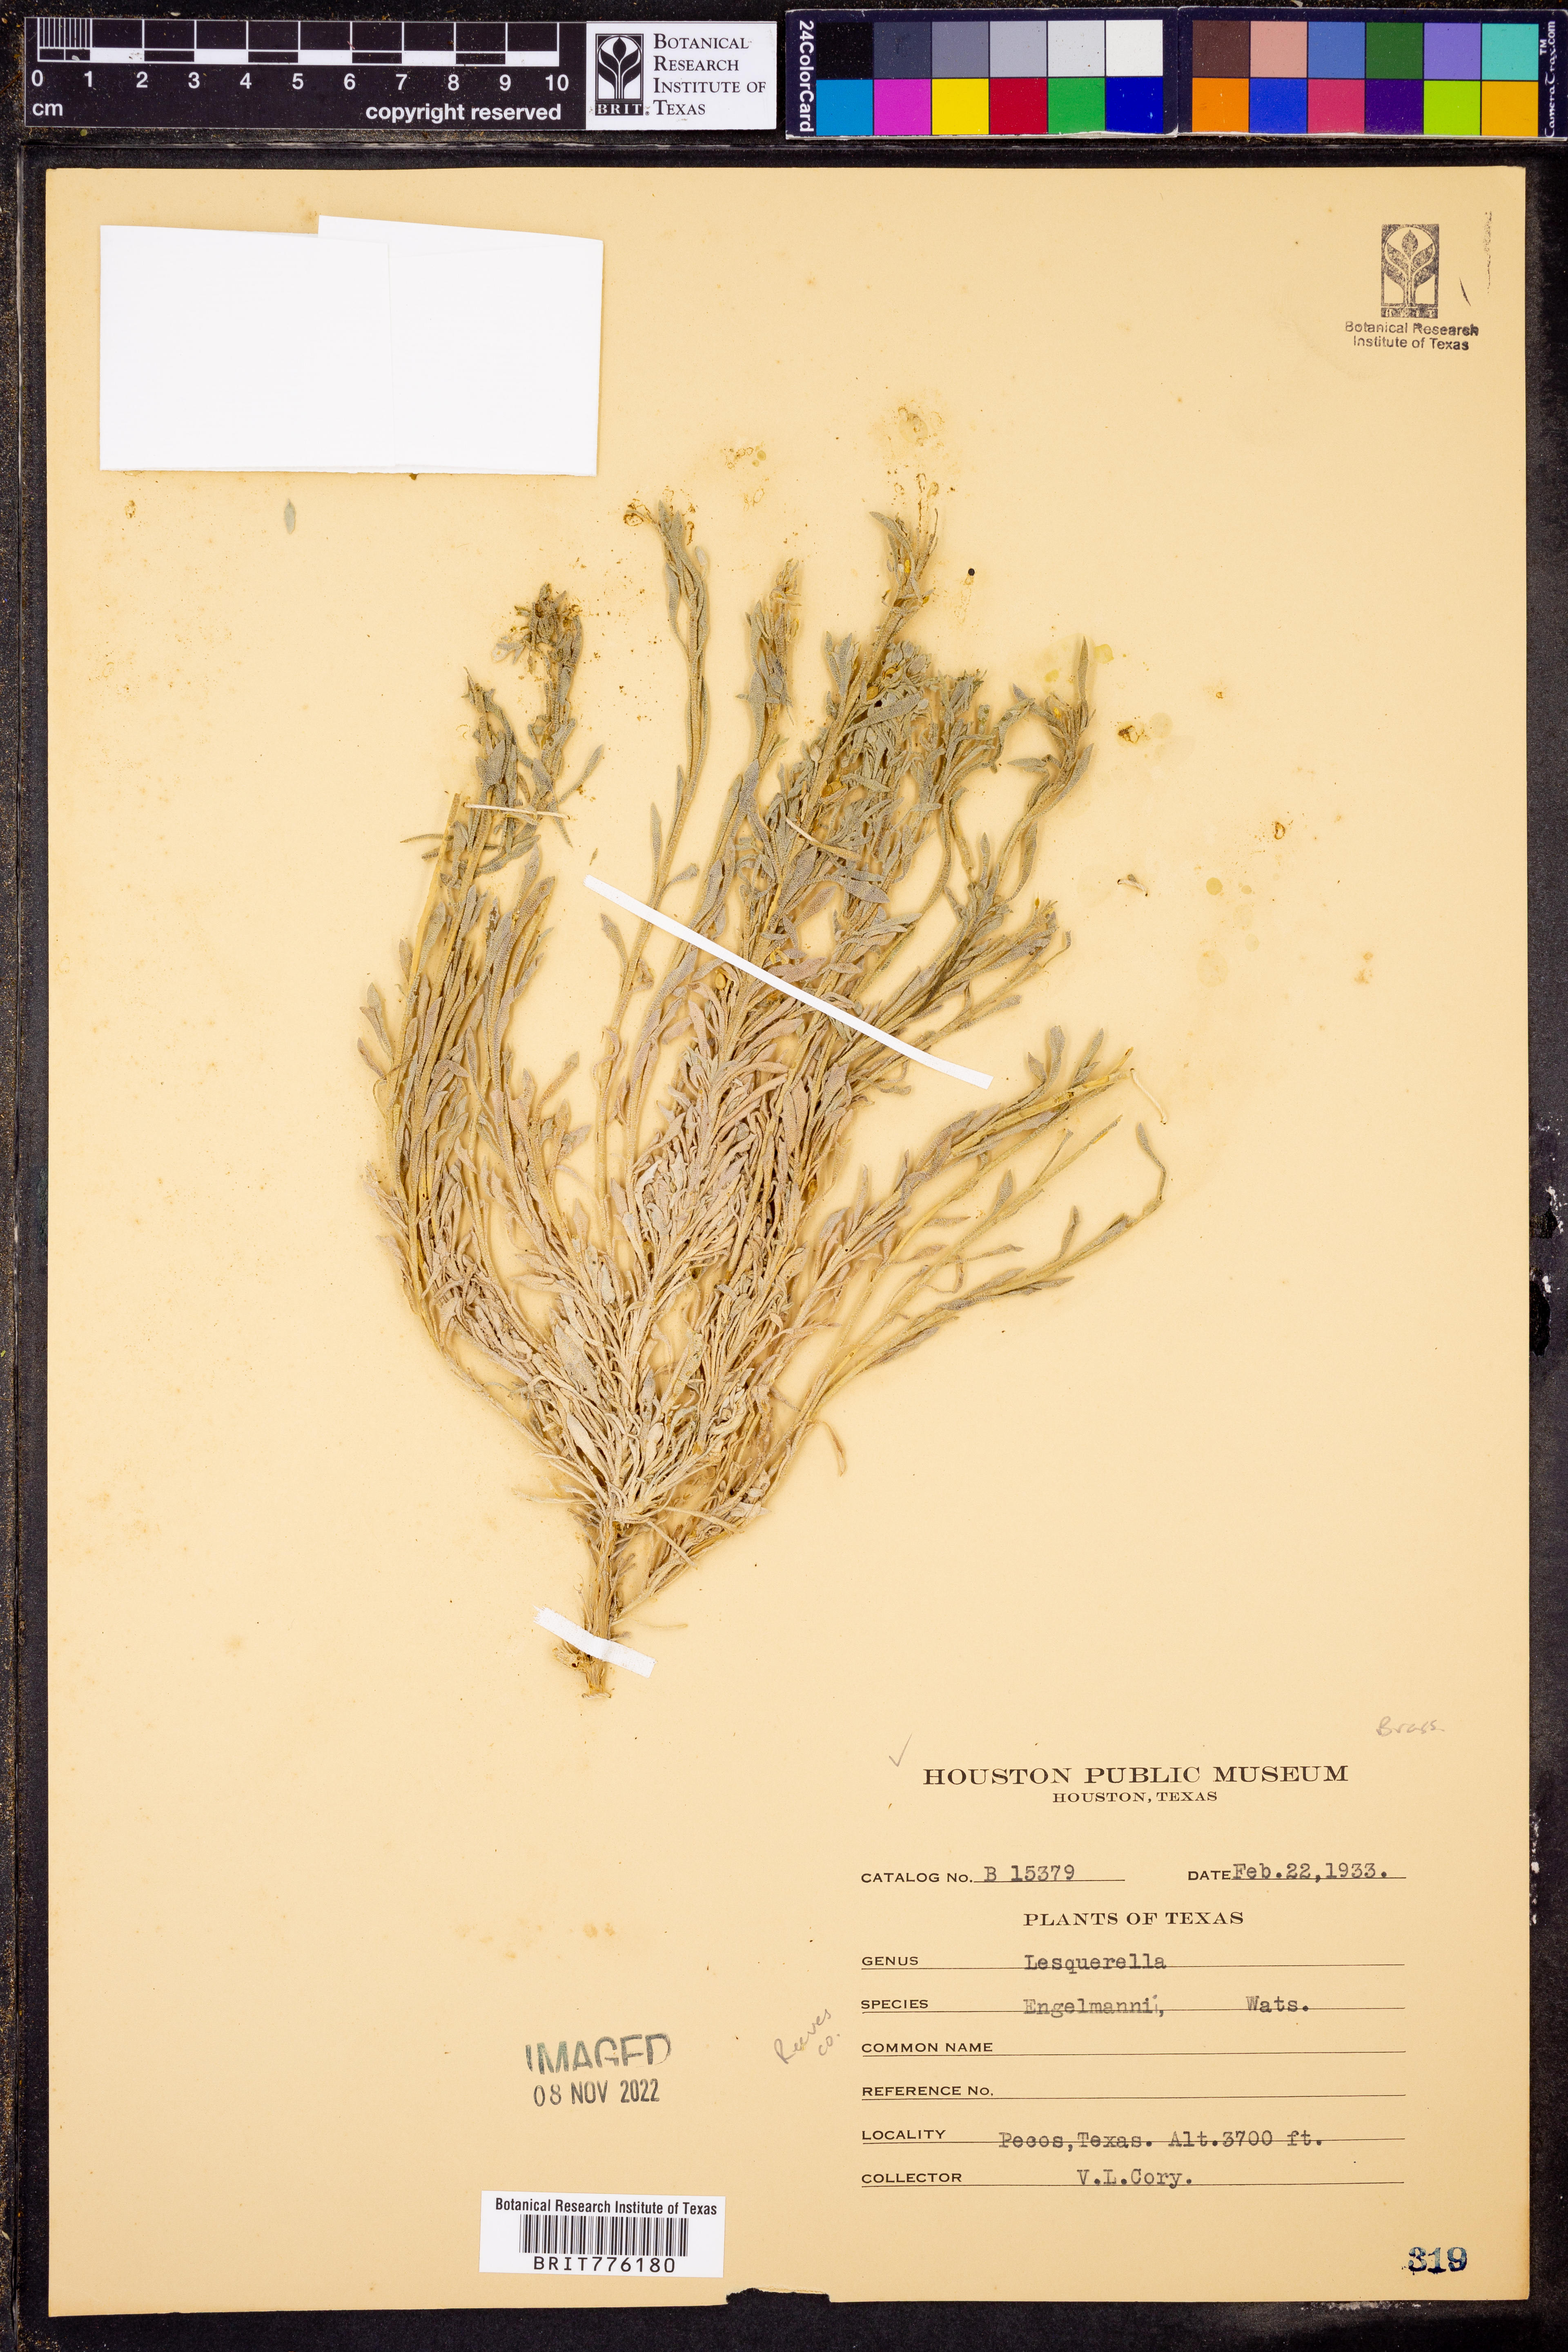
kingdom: Plantae
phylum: Tracheophyta
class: Magnoliopsida
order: Brassicales
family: Brassicaceae
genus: Physaria
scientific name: Physaria engelmannii
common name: Engelmann's bladderpod
